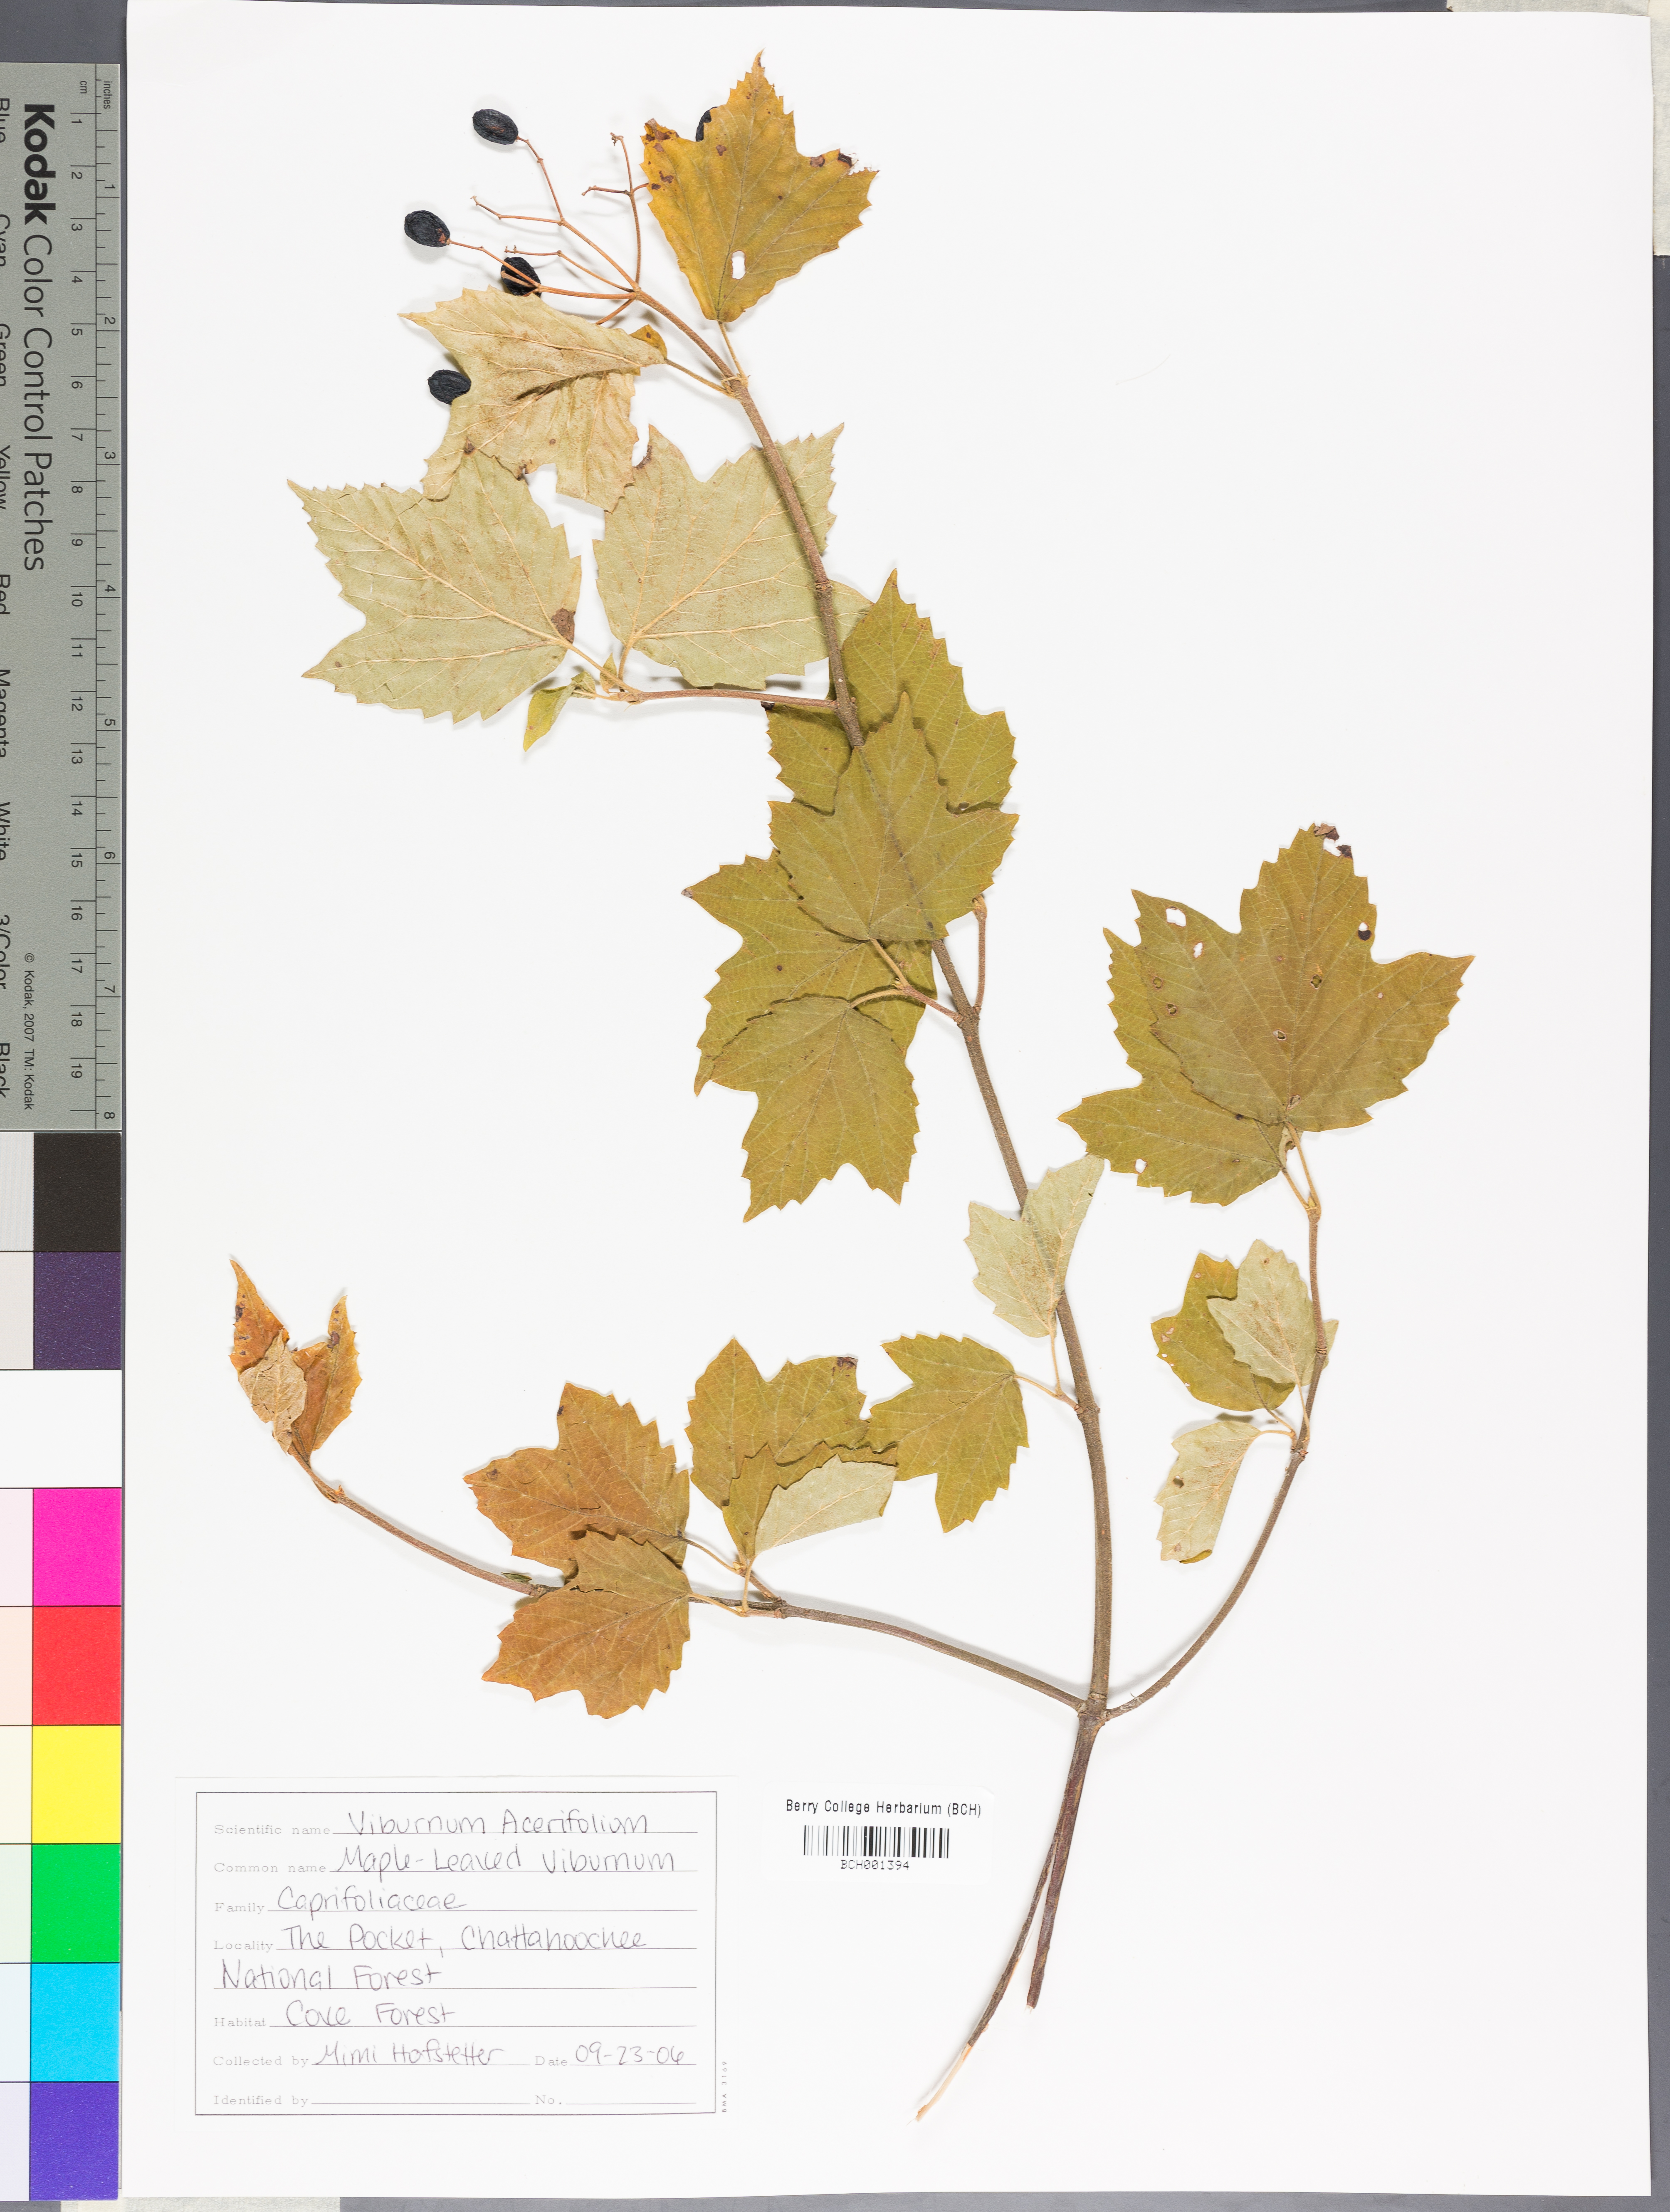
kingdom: Plantae
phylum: Tracheophyta
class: Magnoliopsida
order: Dipsacales
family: Viburnaceae
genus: Viburnum
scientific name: Viburnum acerifolium
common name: Dockmackie
